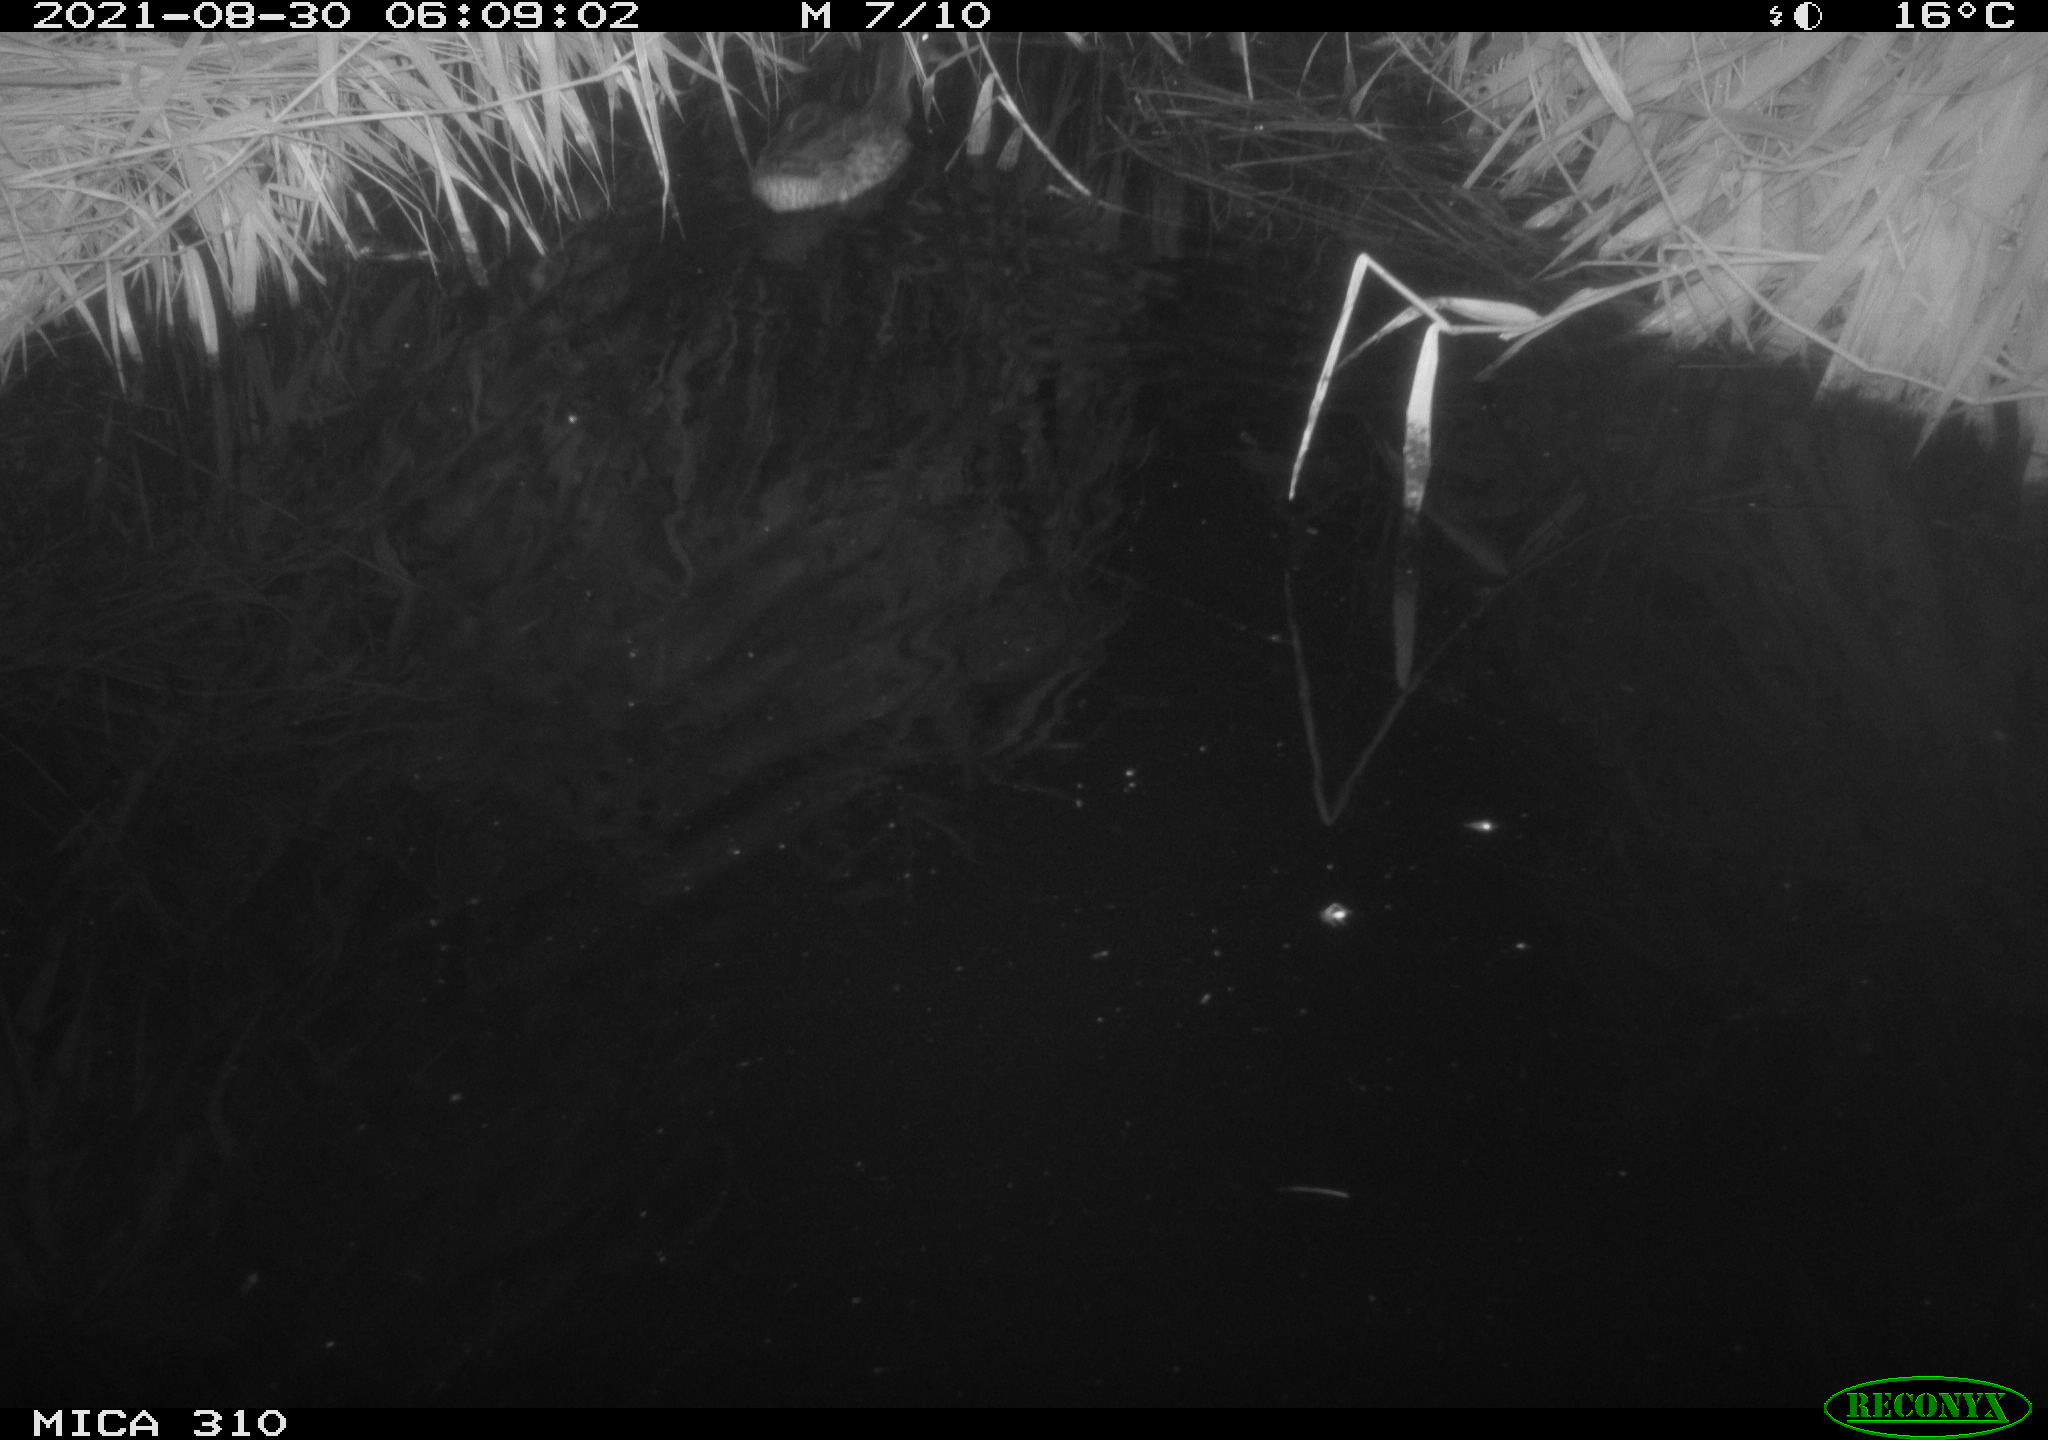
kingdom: Animalia
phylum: Chordata
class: Aves
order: Anseriformes
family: Anatidae
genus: Anas
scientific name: Anas platyrhynchos
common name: Mallard
